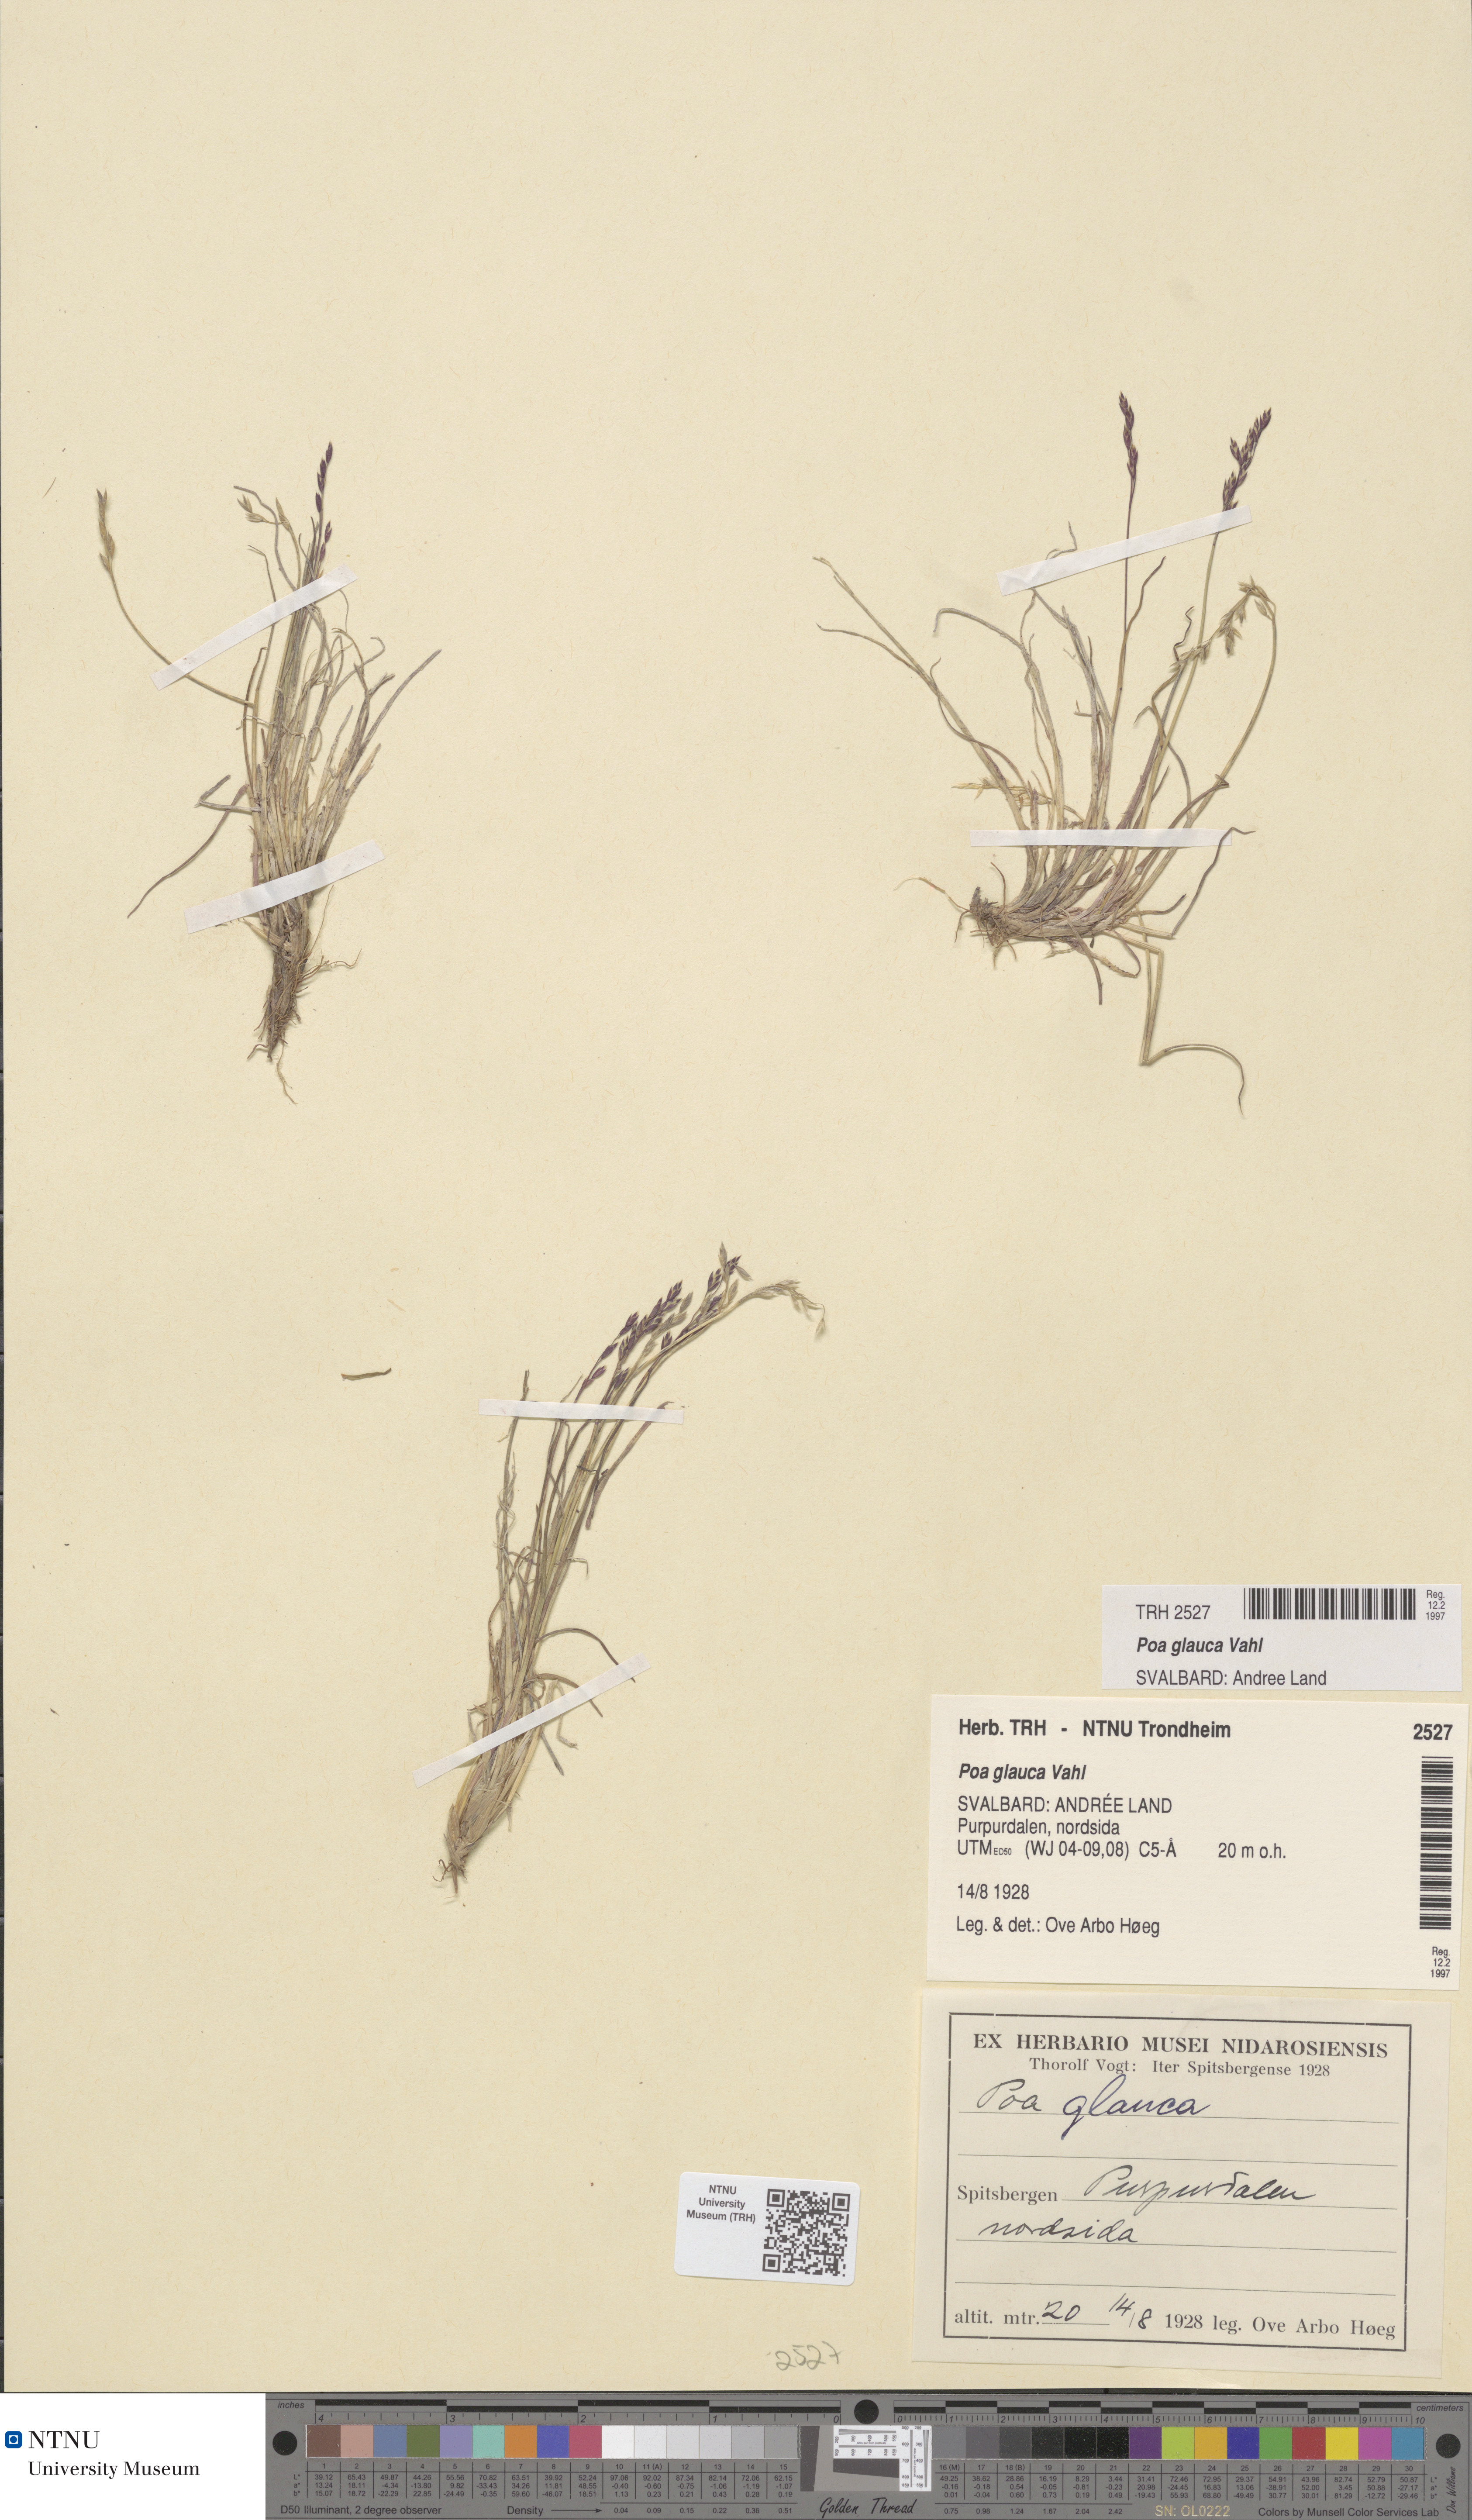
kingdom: Plantae
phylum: Tracheophyta
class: Liliopsida
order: Poales
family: Poaceae
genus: Poa
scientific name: Poa glauca
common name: Glaucous bluegrass
